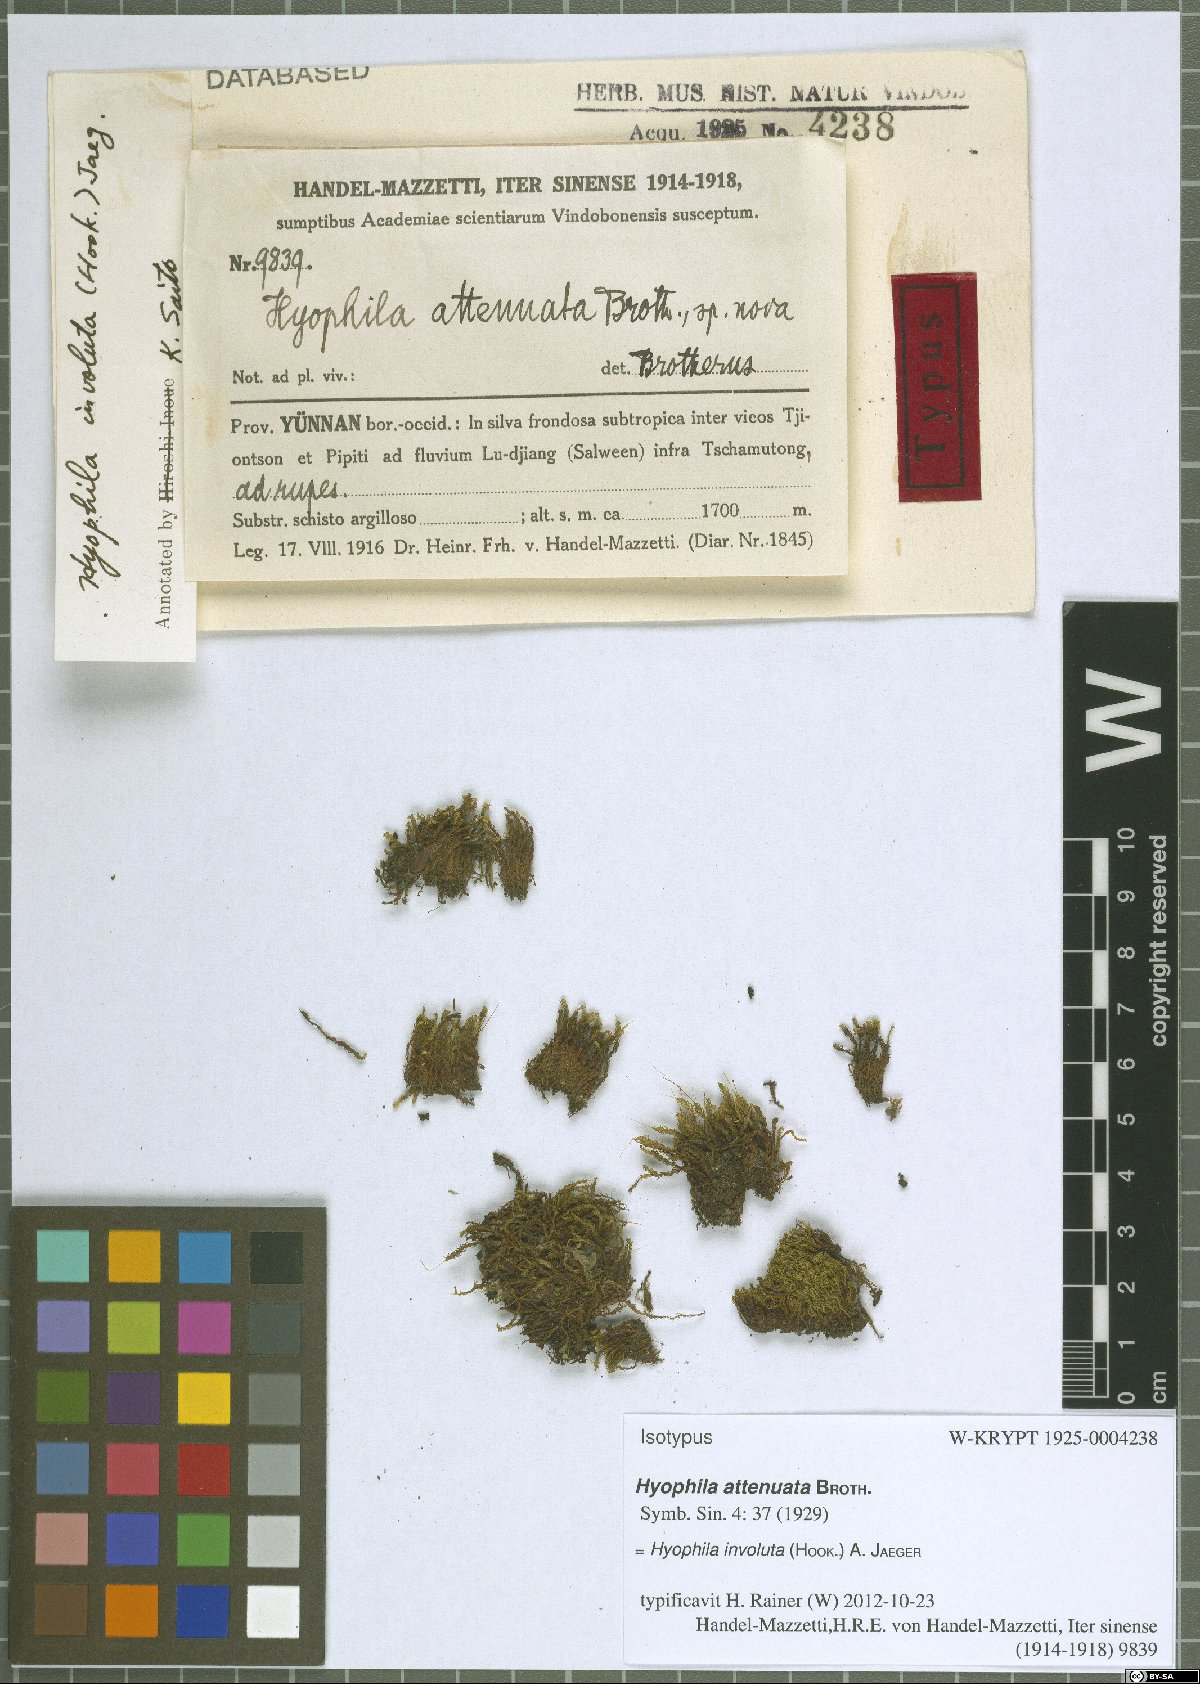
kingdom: Plantae
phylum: Bryophyta
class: Bryopsida
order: Pottiales
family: Pottiaceae
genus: Hyophila
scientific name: Hyophila involuta
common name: Hyophila moss
